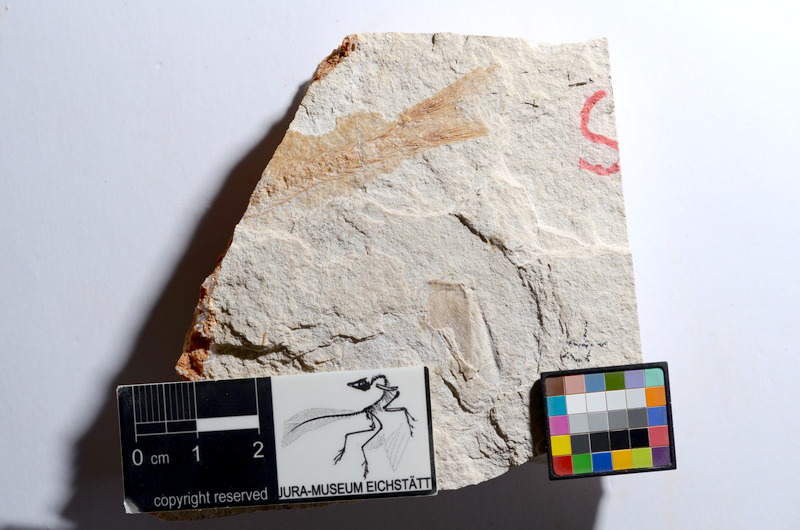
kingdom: Animalia
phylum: Chordata
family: Ascalaboidae
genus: Tharsis
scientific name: Tharsis dubius
